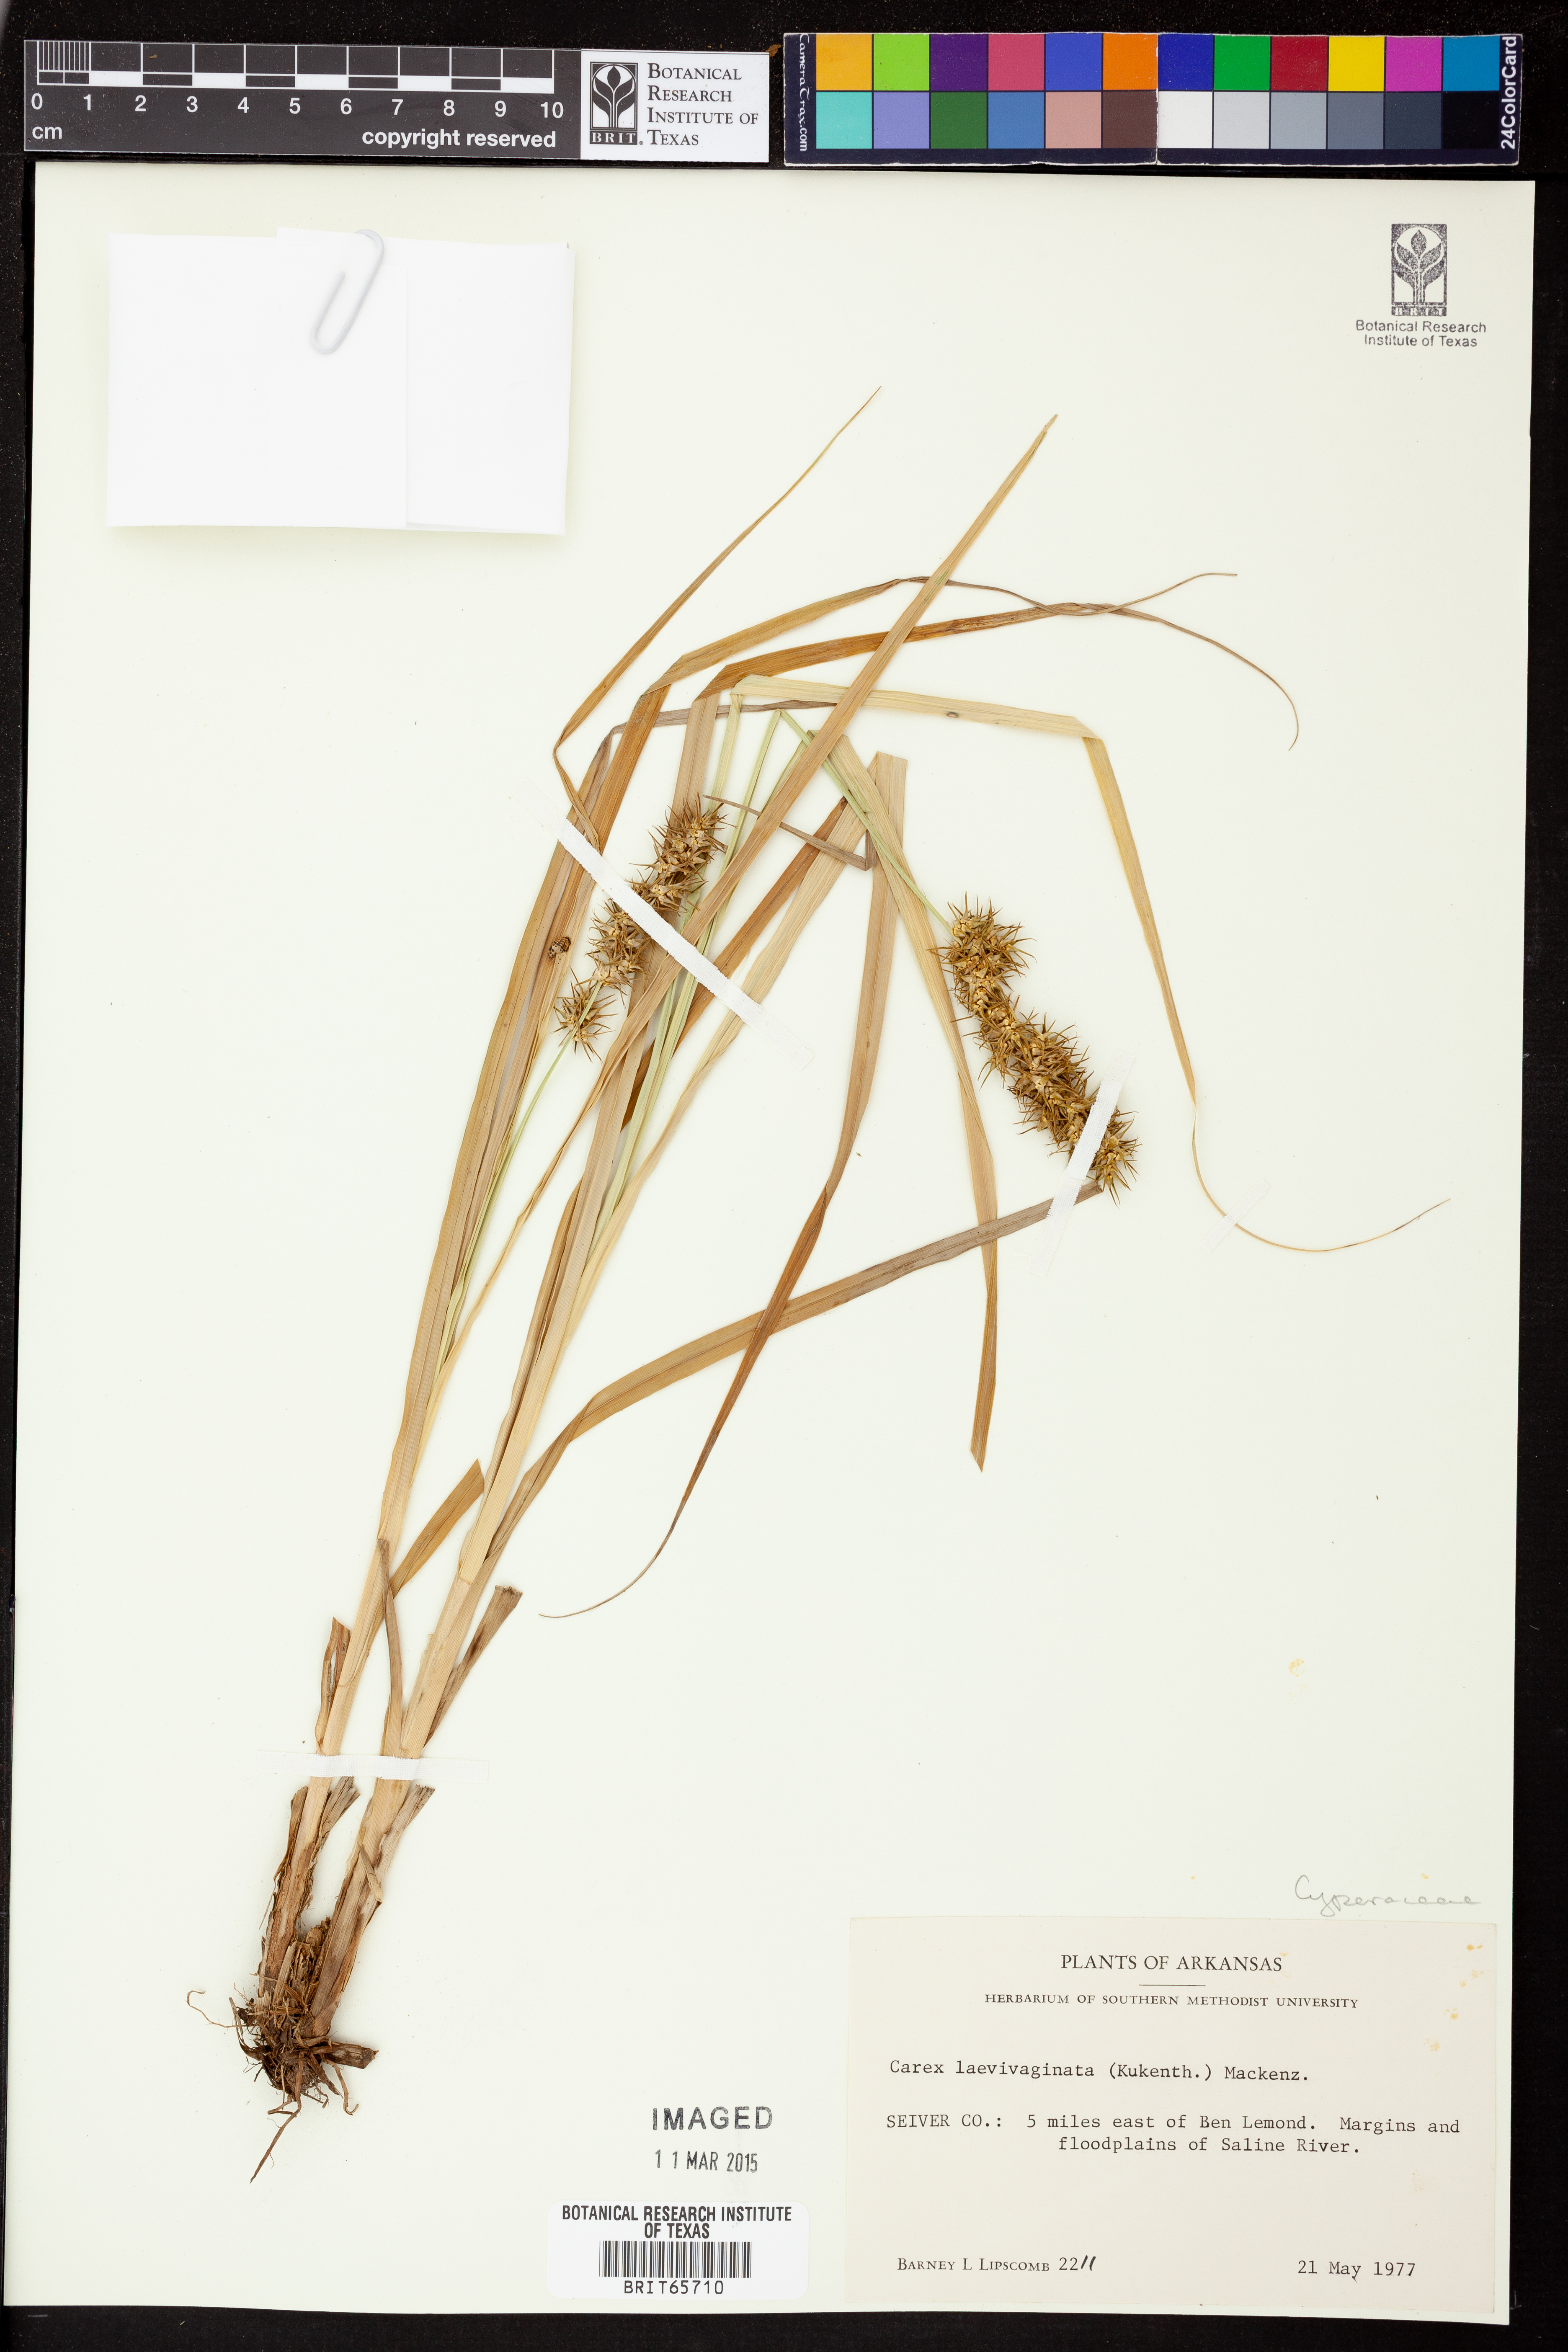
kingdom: Plantae
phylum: Tracheophyta
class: Liliopsida
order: Poales
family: Cyperaceae
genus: Carex
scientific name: Carex laevivaginata
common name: Smooth-sheathed fox sedge
